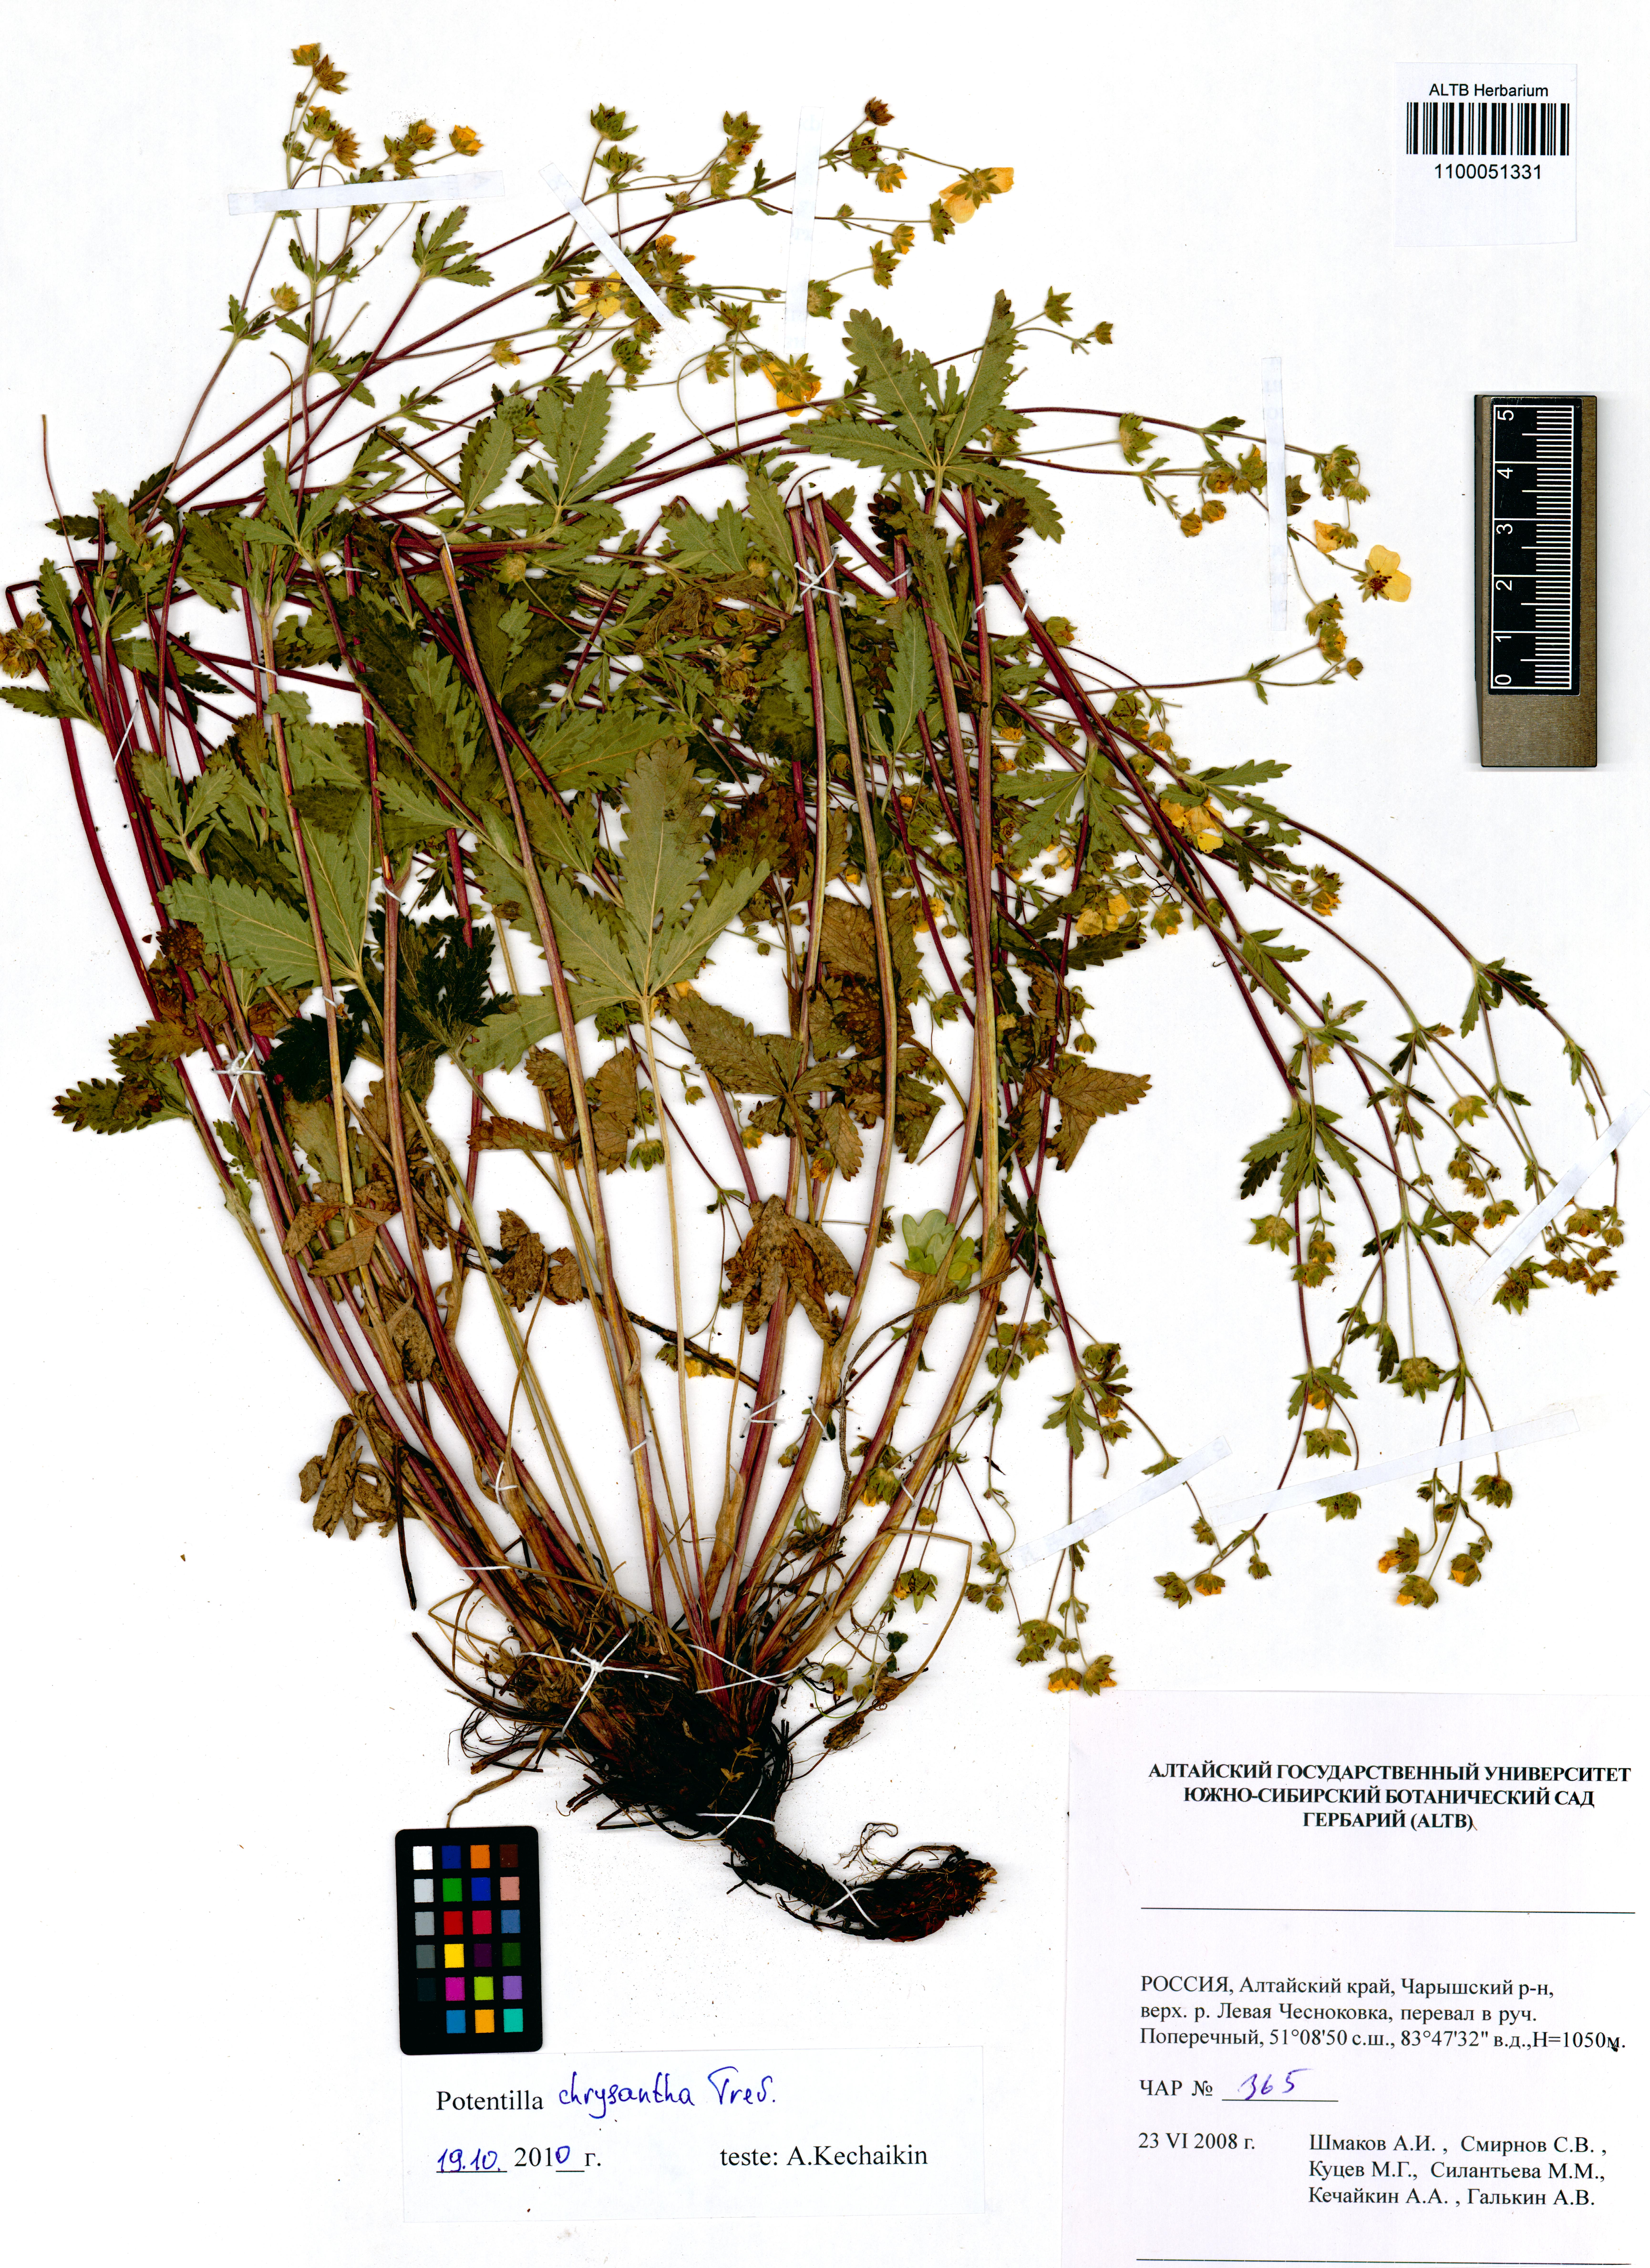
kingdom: Plantae
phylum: Tracheophyta
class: Magnoliopsida
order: Rosales
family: Rosaceae
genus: Potentilla
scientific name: Potentilla chrysantha
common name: Thuringian cinquefoil
